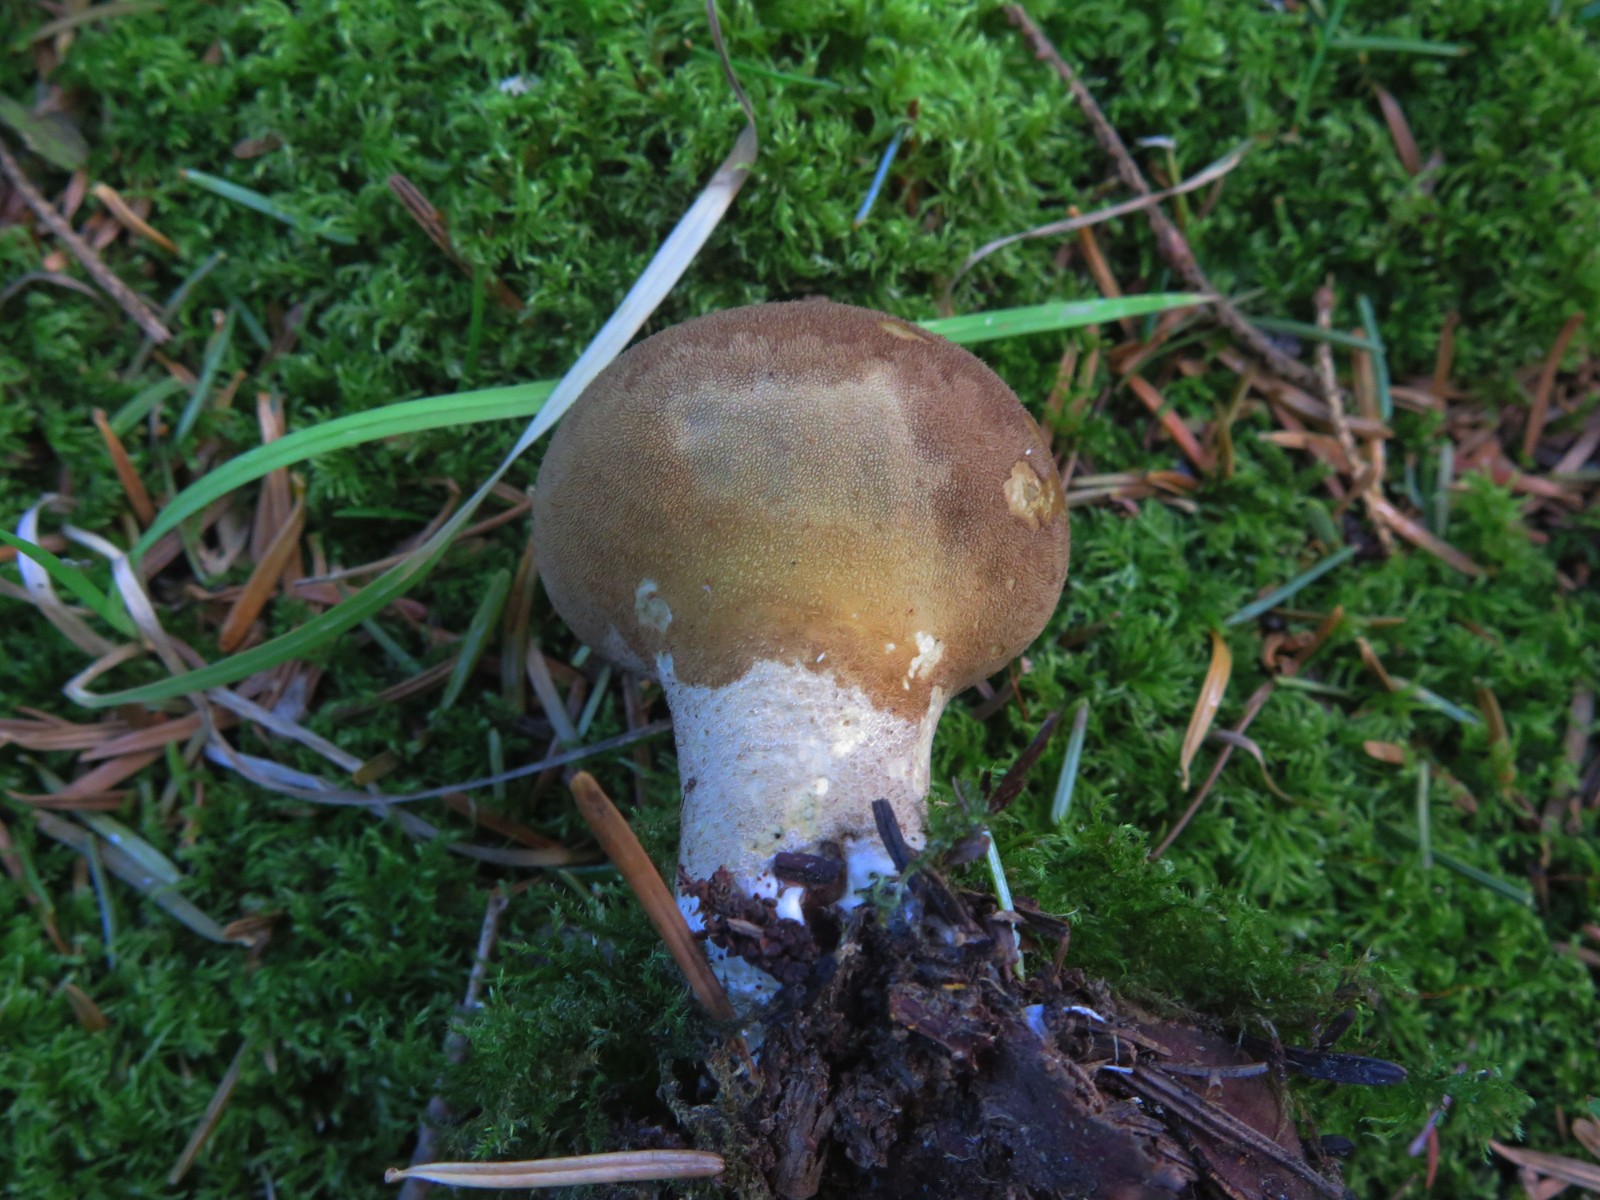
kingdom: Fungi
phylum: Basidiomycota
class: Agaricomycetes
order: Agaricales
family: Lycoperdaceae
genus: Lycoperdon
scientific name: Lycoperdon umbrinum
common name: umbrabrun støvbold
